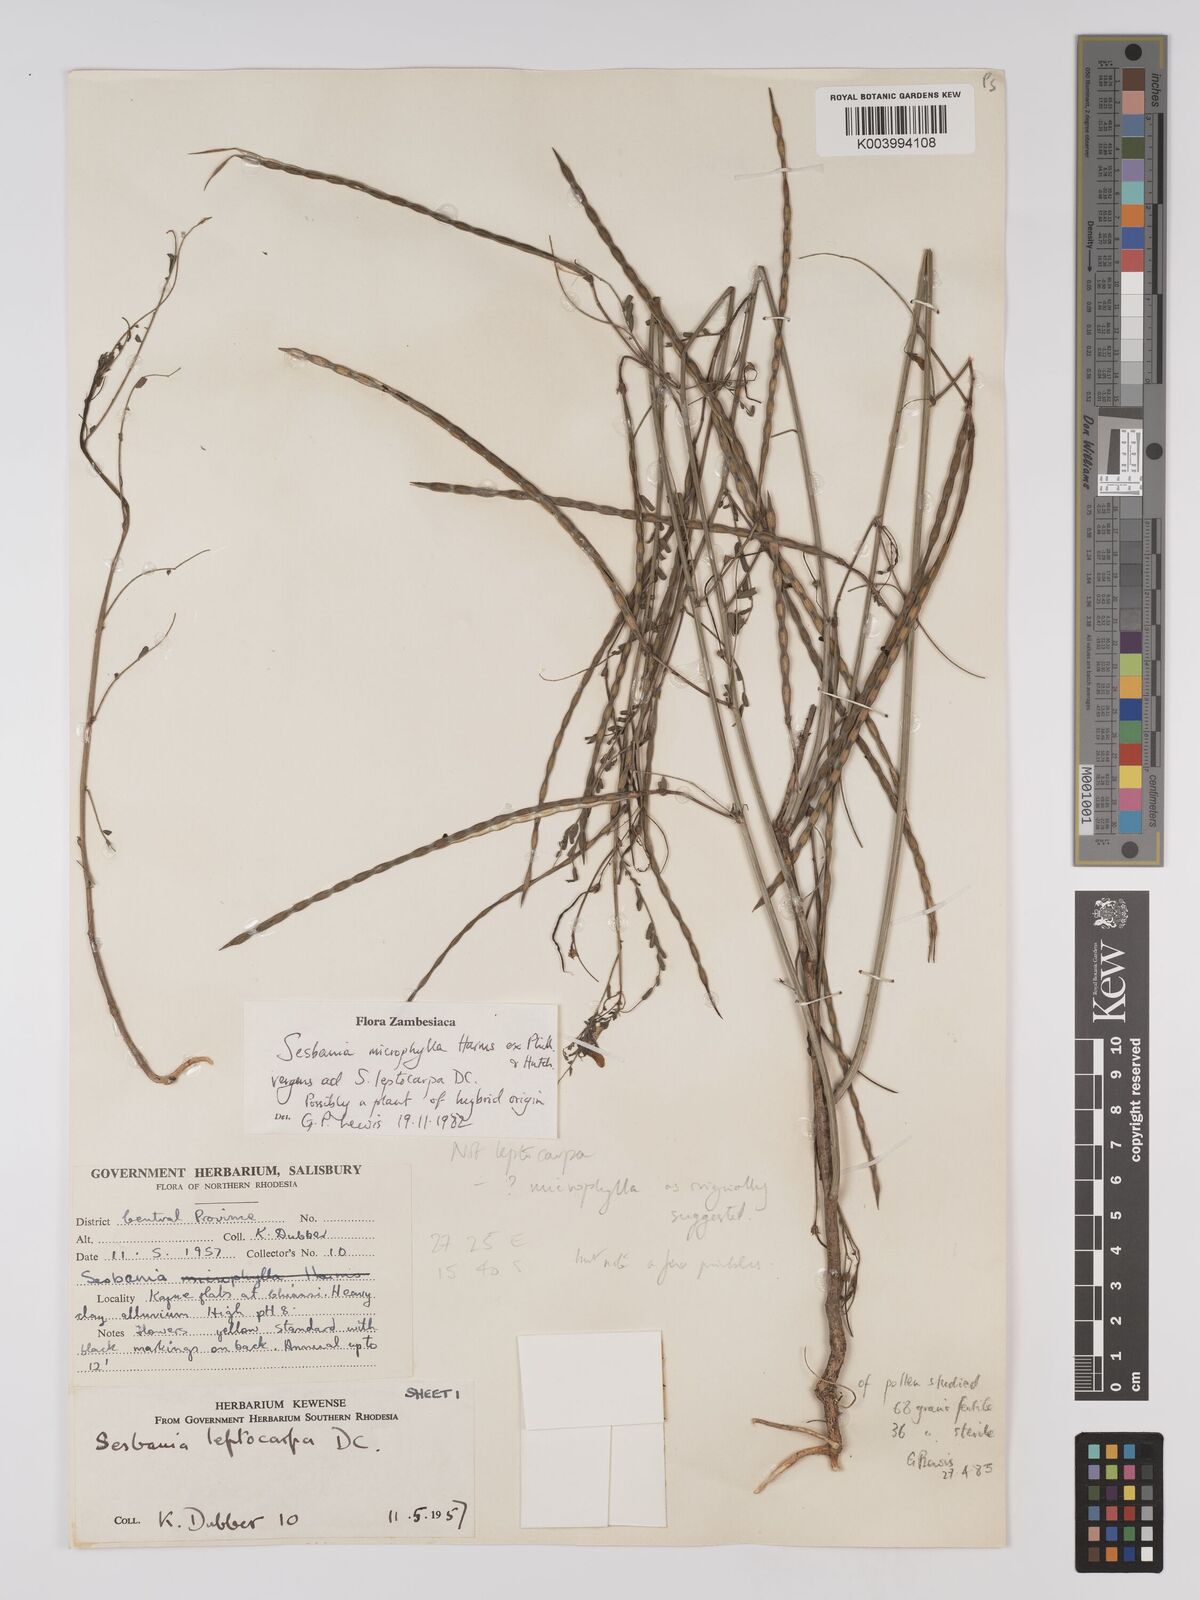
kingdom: Plantae
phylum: Tracheophyta
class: Magnoliopsida
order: Fabales
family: Fabaceae
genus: Sesbania
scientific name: Sesbania
